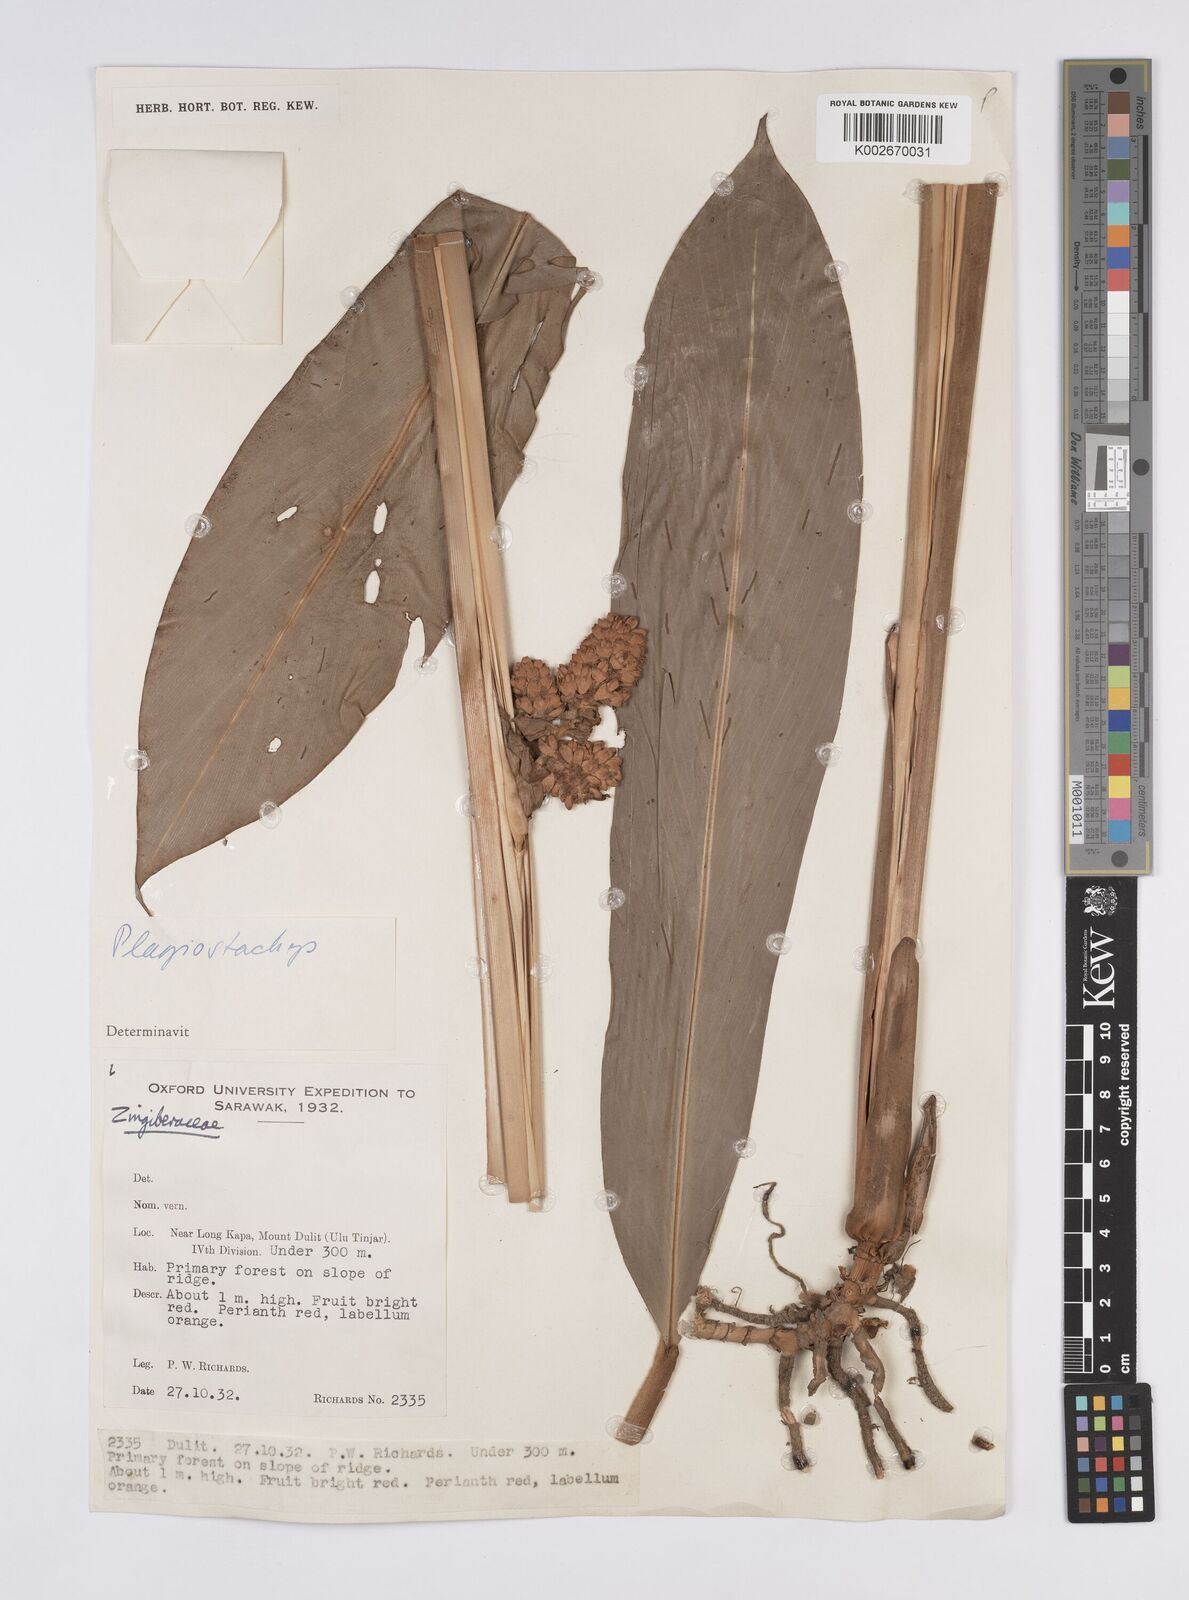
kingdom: Plantae
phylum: Tracheophyta
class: Liliopsida
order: Zingiberales
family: Zingiberaceae
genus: Plagiostachys
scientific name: Plagiostachys
